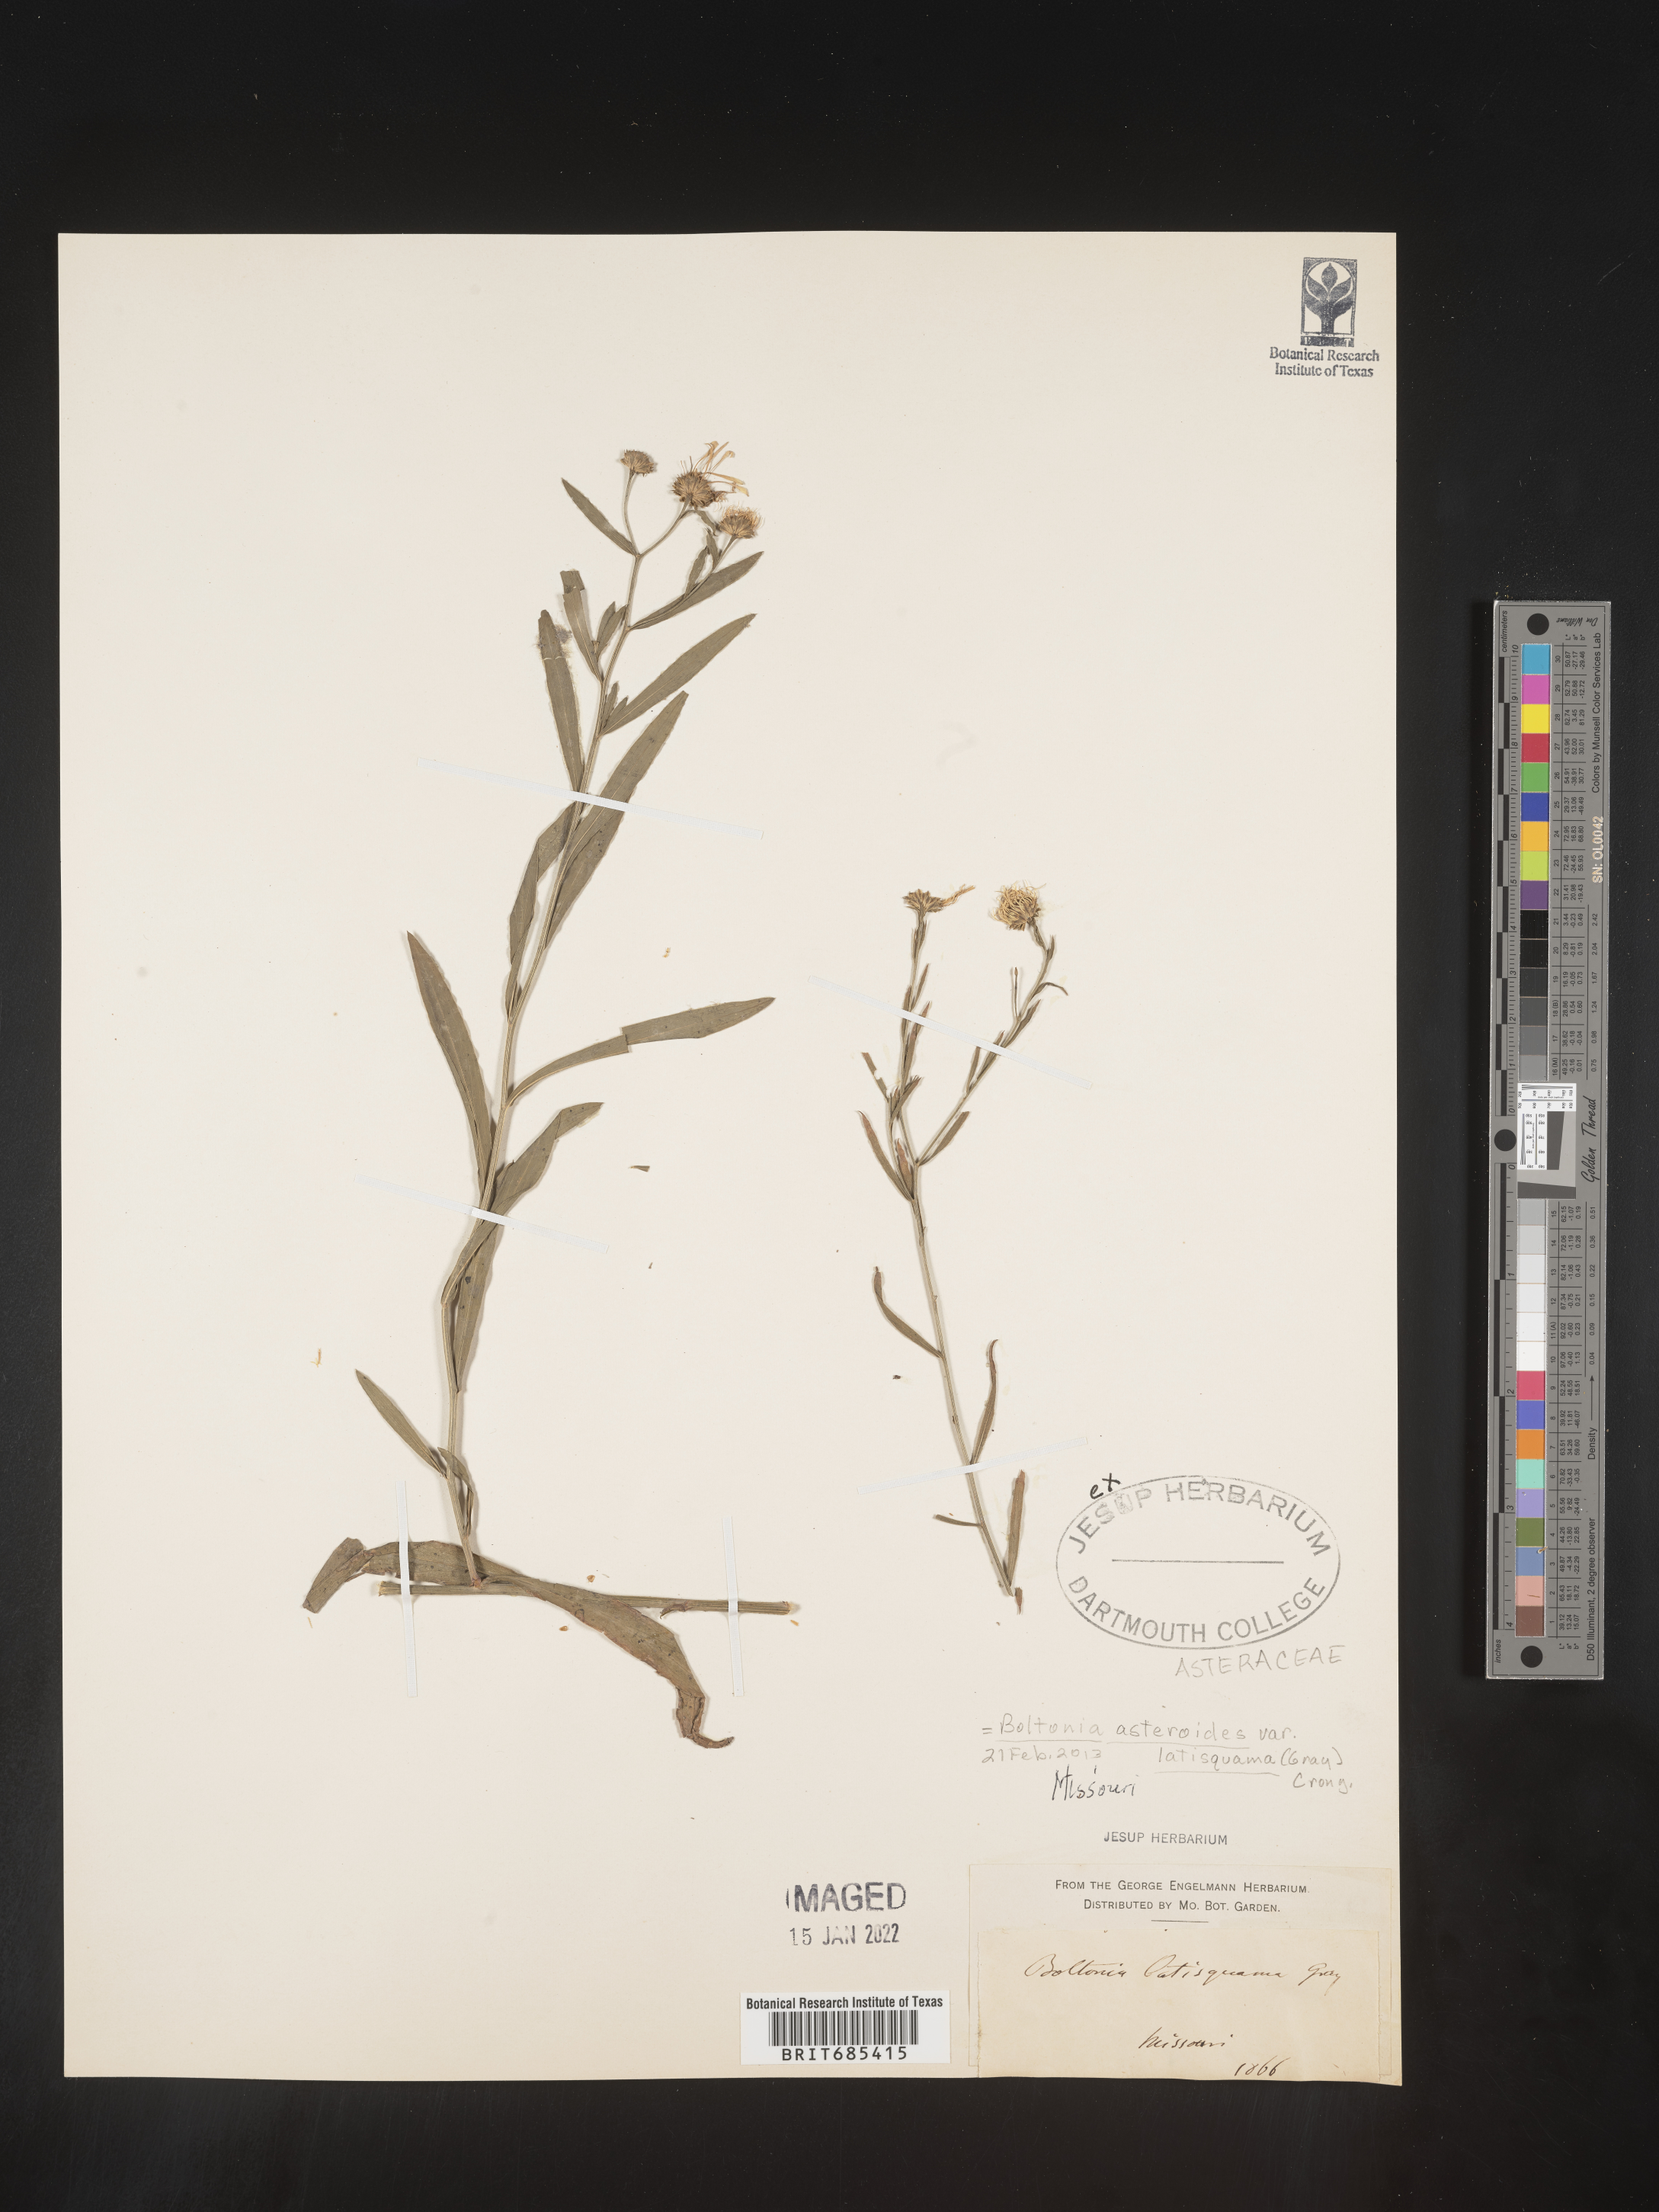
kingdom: Plantae
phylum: Tracheophyta
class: Magnoliopsida
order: Asterales
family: Asteraceae
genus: Boltonia
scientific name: Boltonia asteroides
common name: False chamomile
